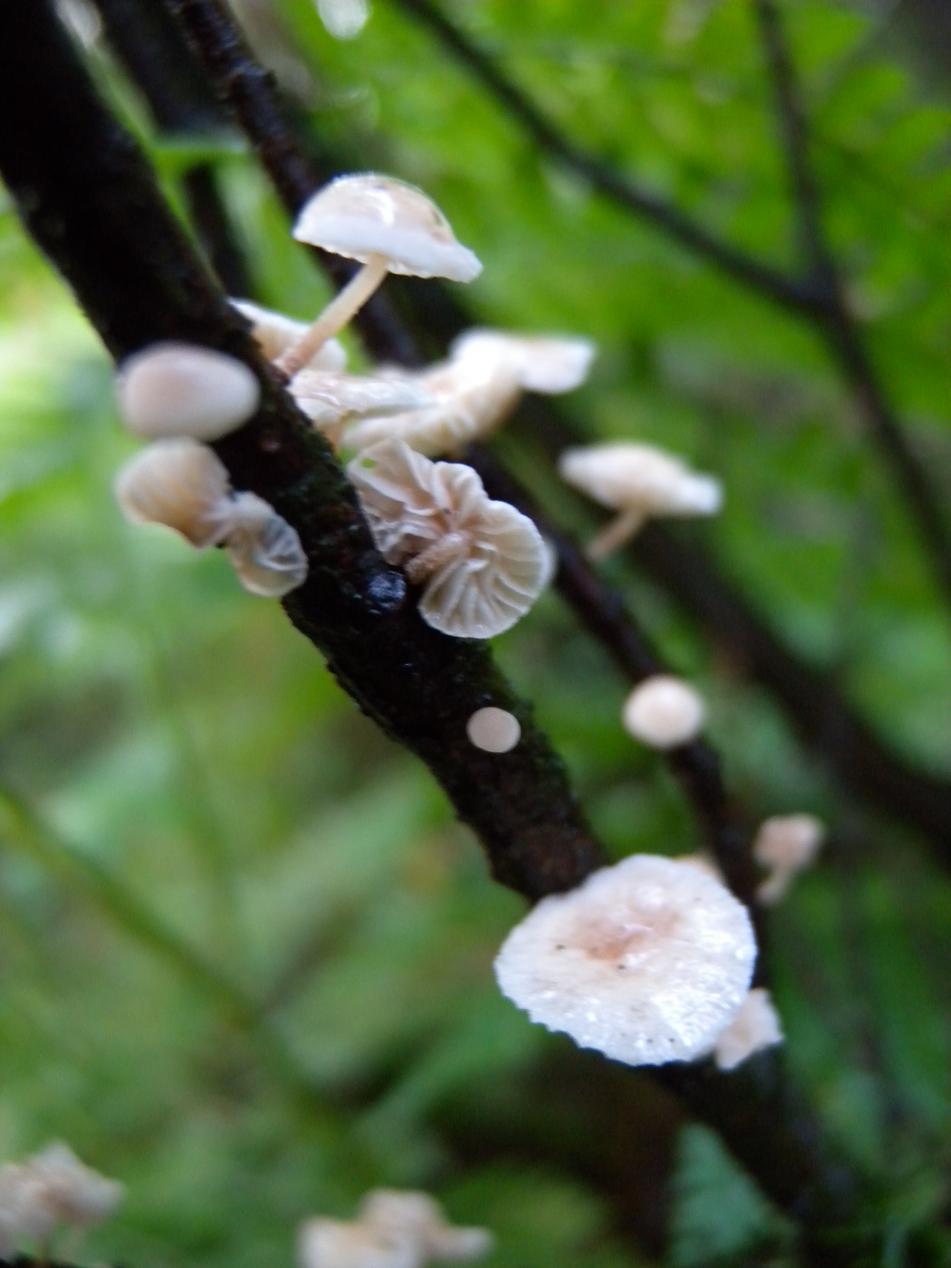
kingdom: Fungi
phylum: Basidiomycota
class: Agaricomycetes
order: Agaricales
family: Omphalotaceae
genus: Collybiopsis
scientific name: Collybiopsis ramealis
